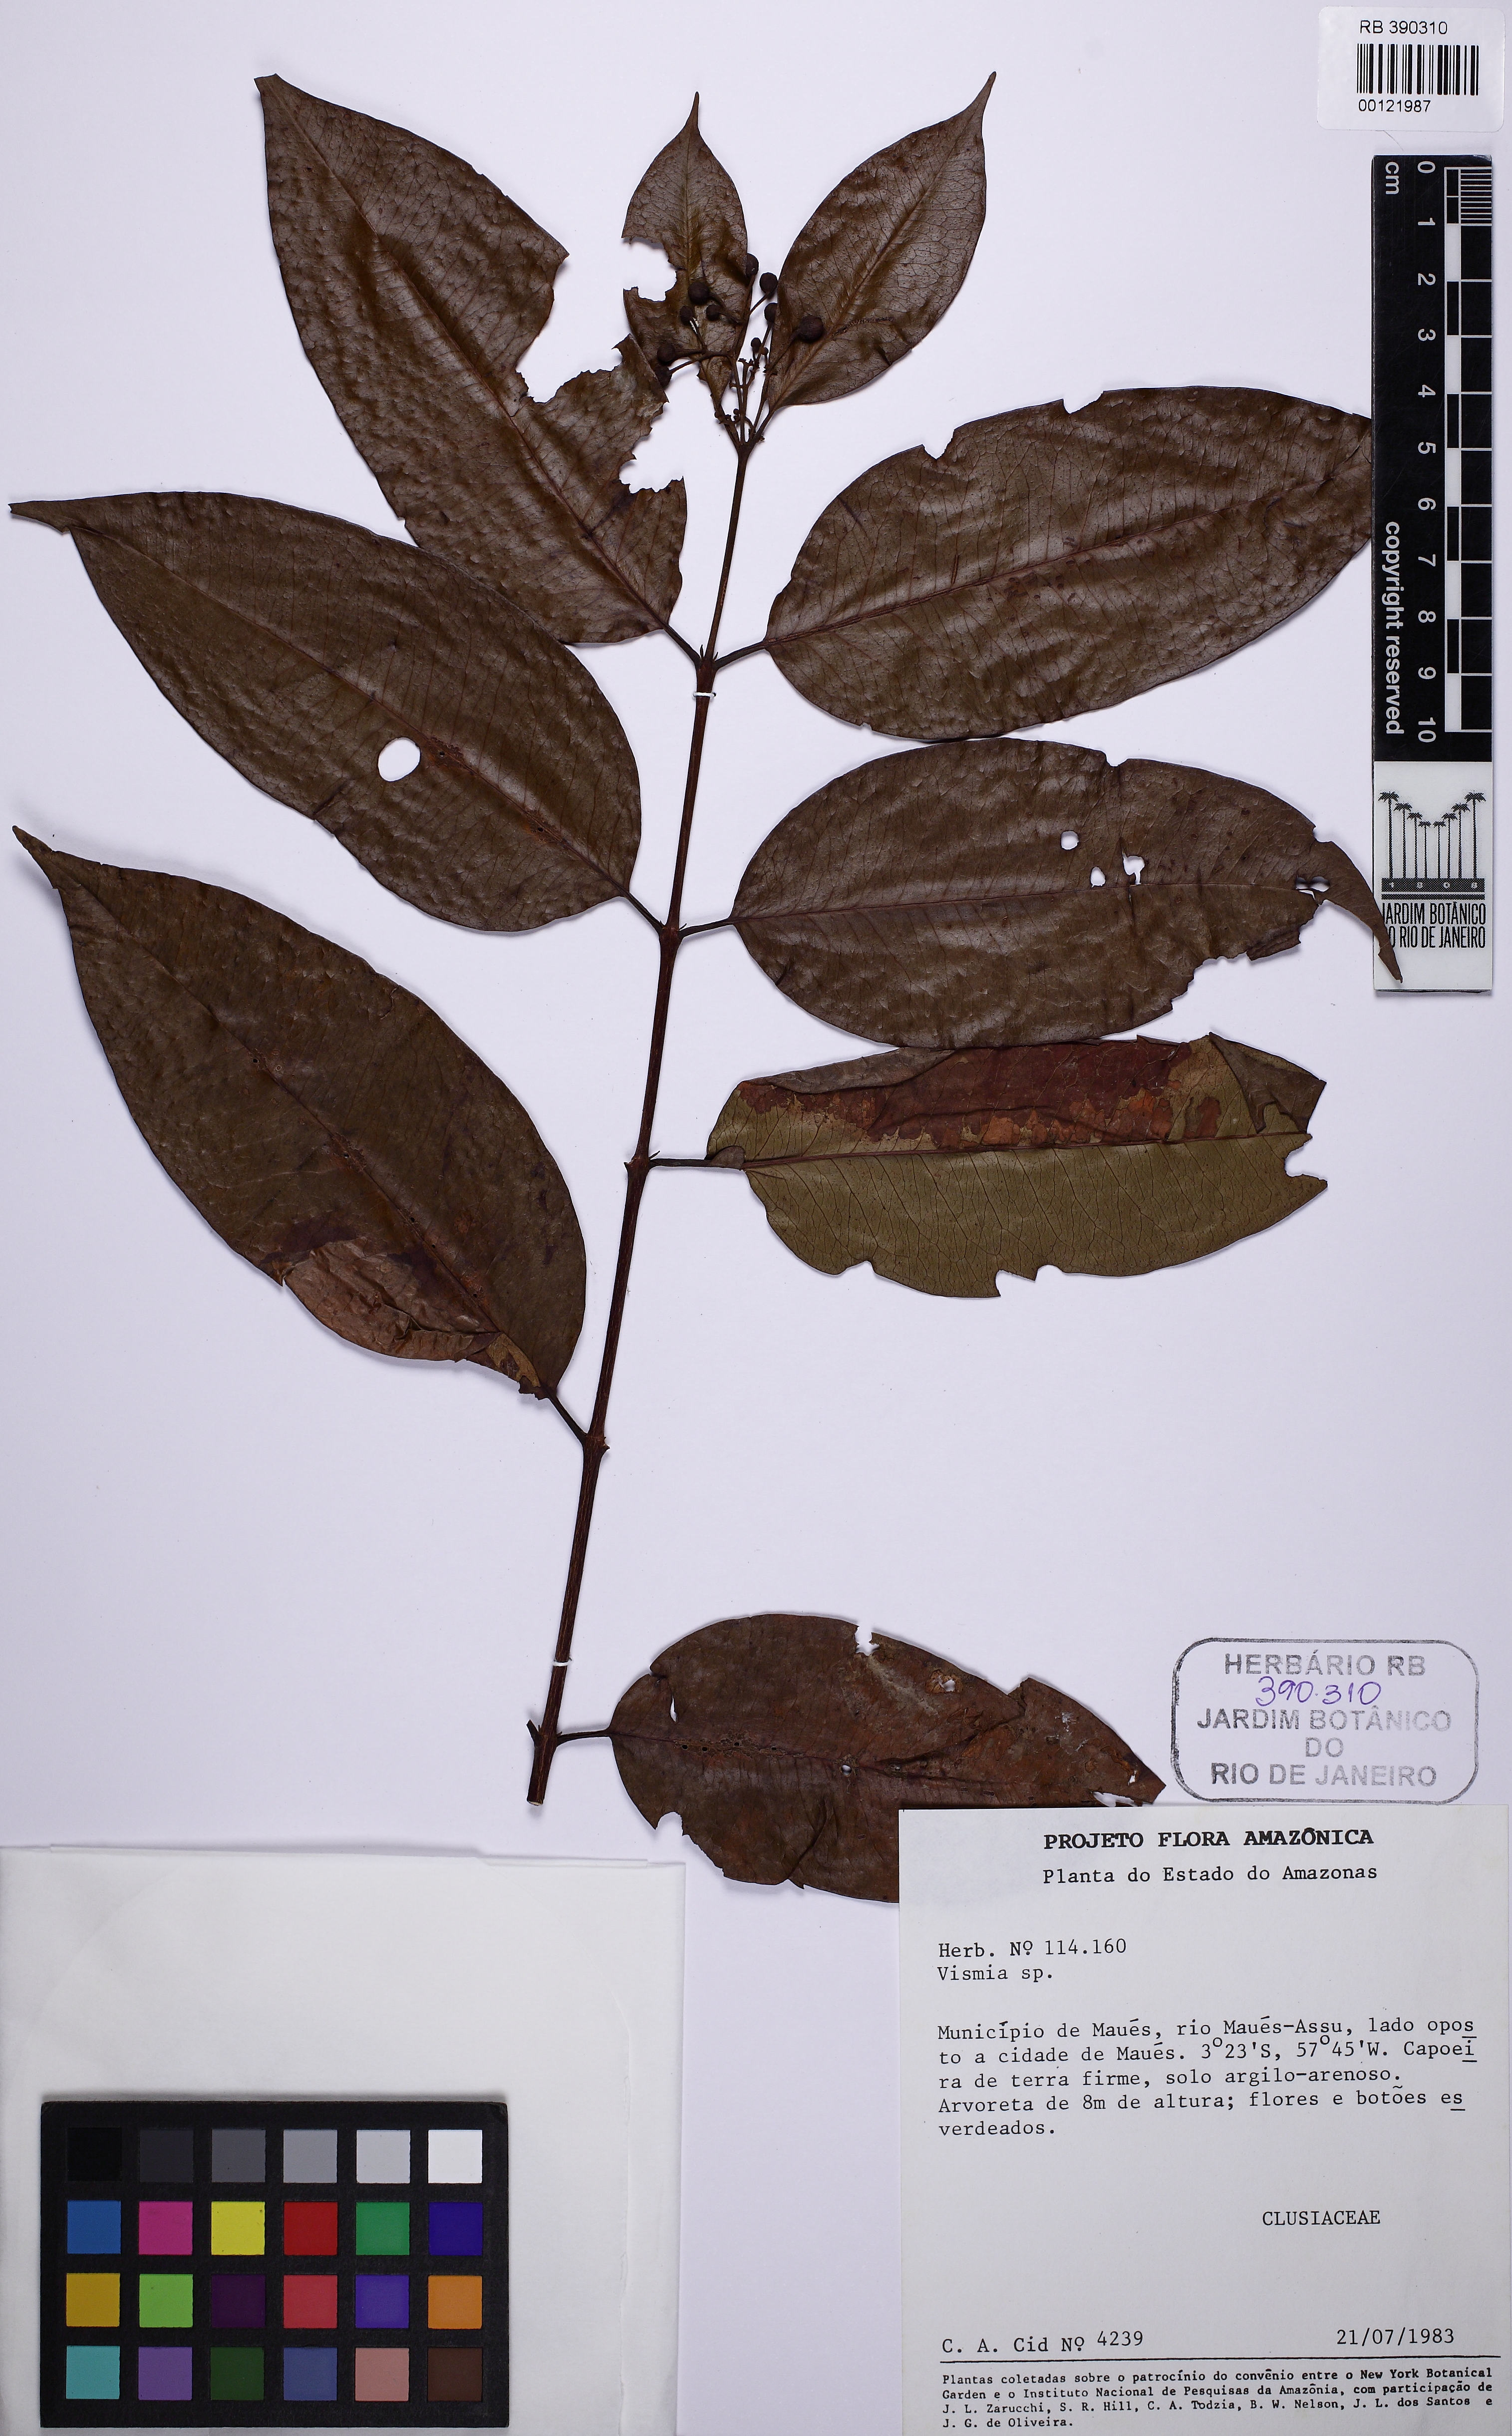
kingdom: Plantae
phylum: Tracheophyta
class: Magnoliopsida
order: Malpighiales
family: Hypericaceae
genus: Vismia
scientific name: Vismia cayennensis
